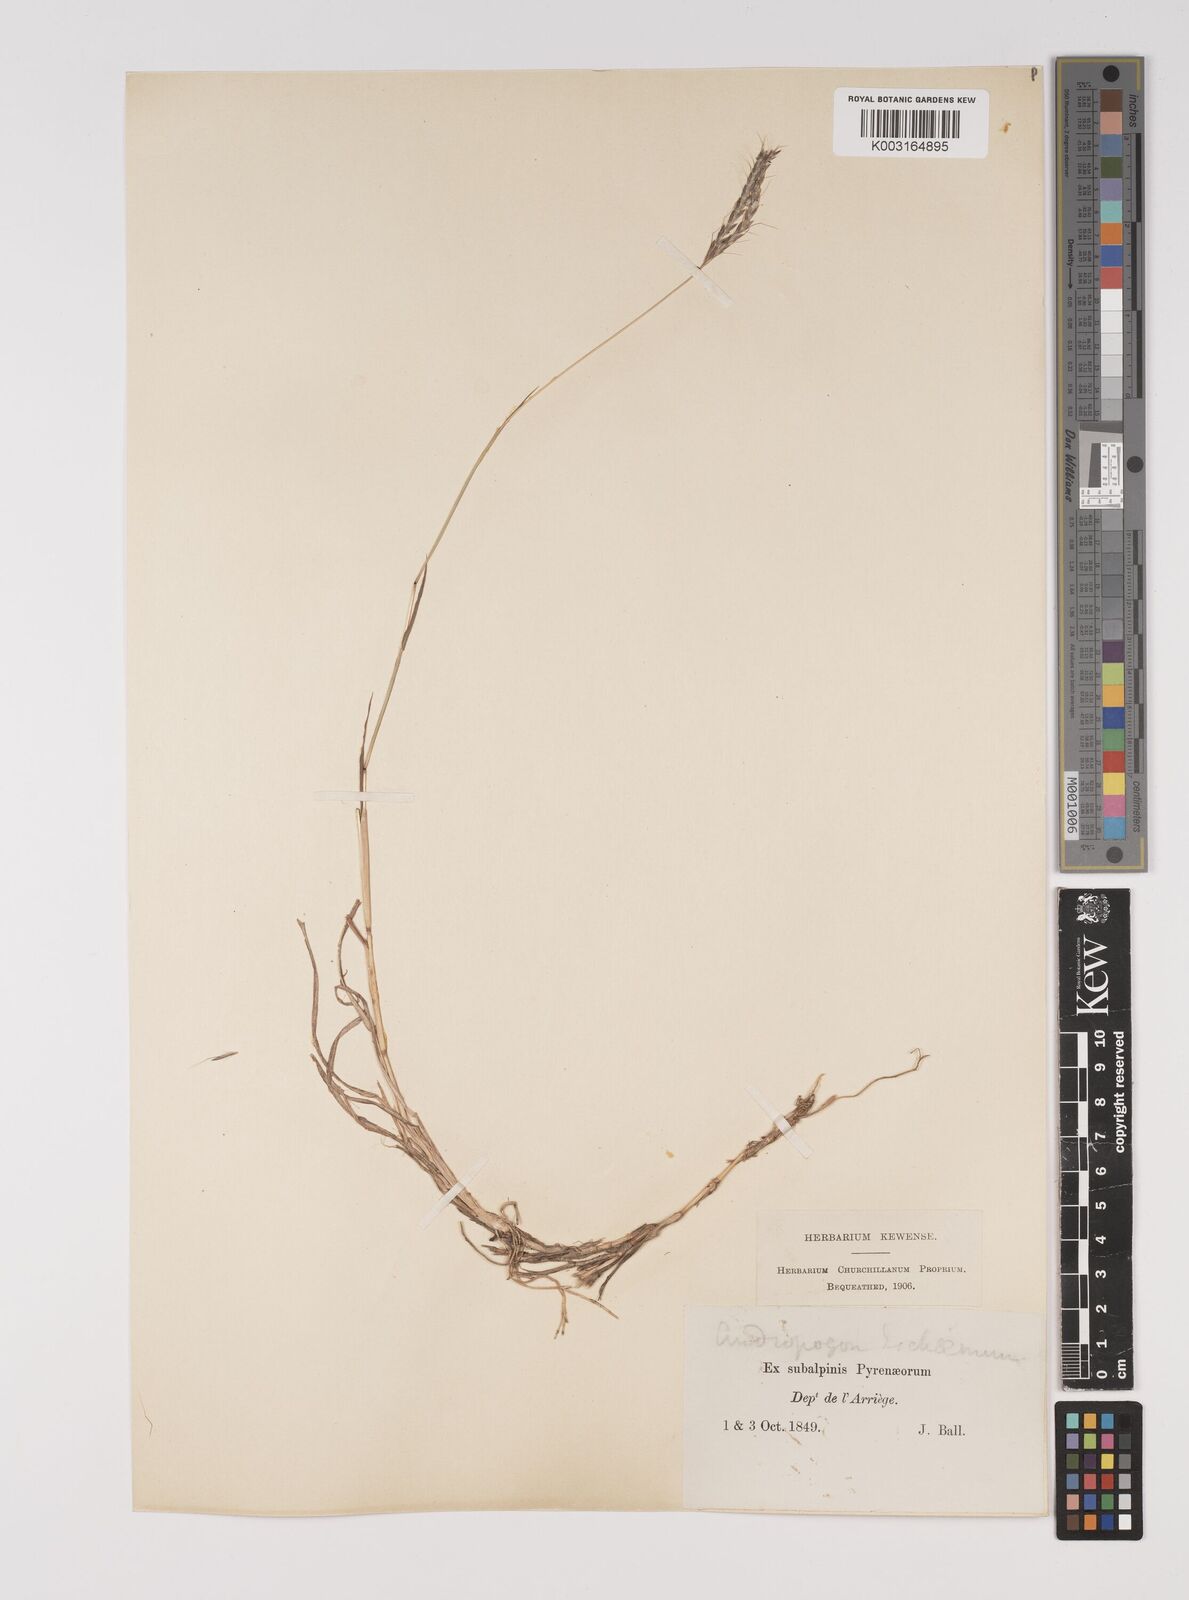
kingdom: Plantae
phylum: Tracheophyta
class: Liliopsida
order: Poales
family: Poaceae
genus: Bothriochloa
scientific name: Bothriochloa ischaemum
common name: Yellow bluestem
